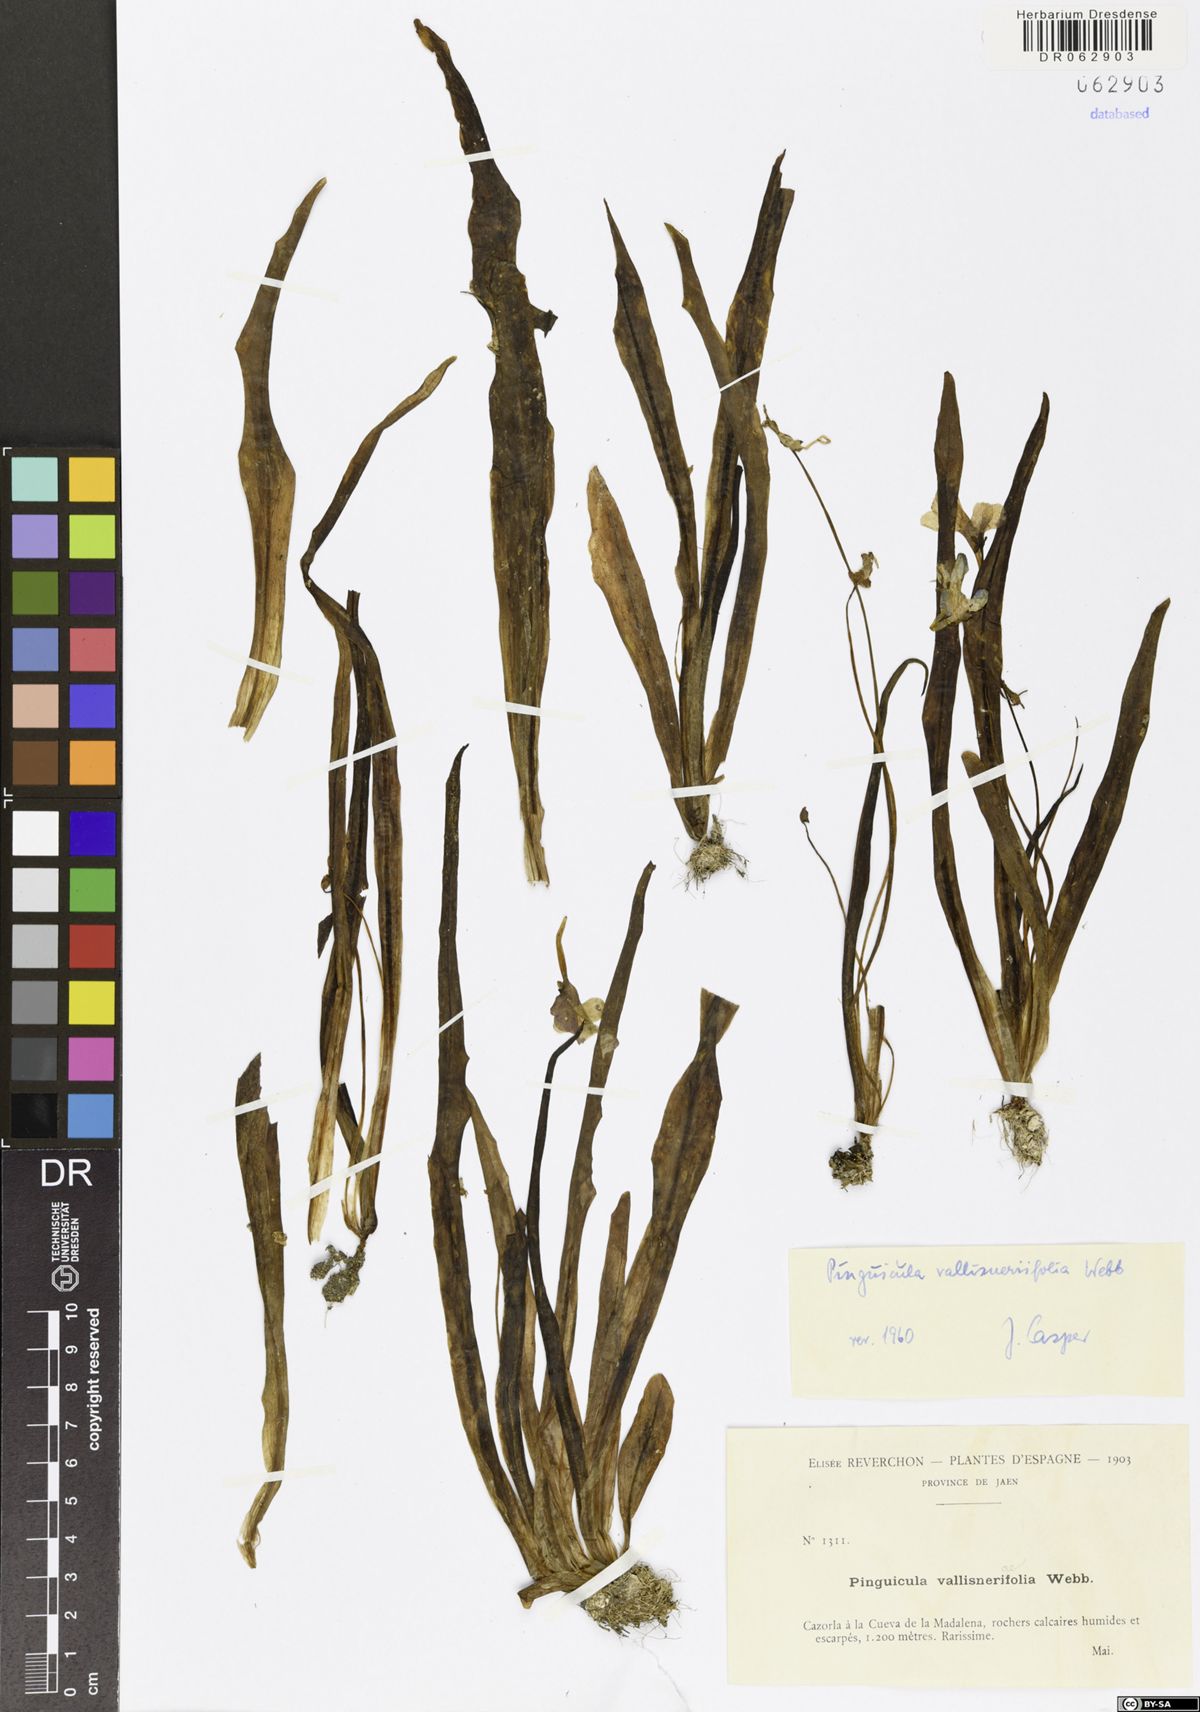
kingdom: Plantae
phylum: Tracheophyta
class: Magnoliopsida
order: Lamiales
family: Lentibulariaceae
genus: Pinguicula
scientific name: Pinguicula vallisneriifolia
